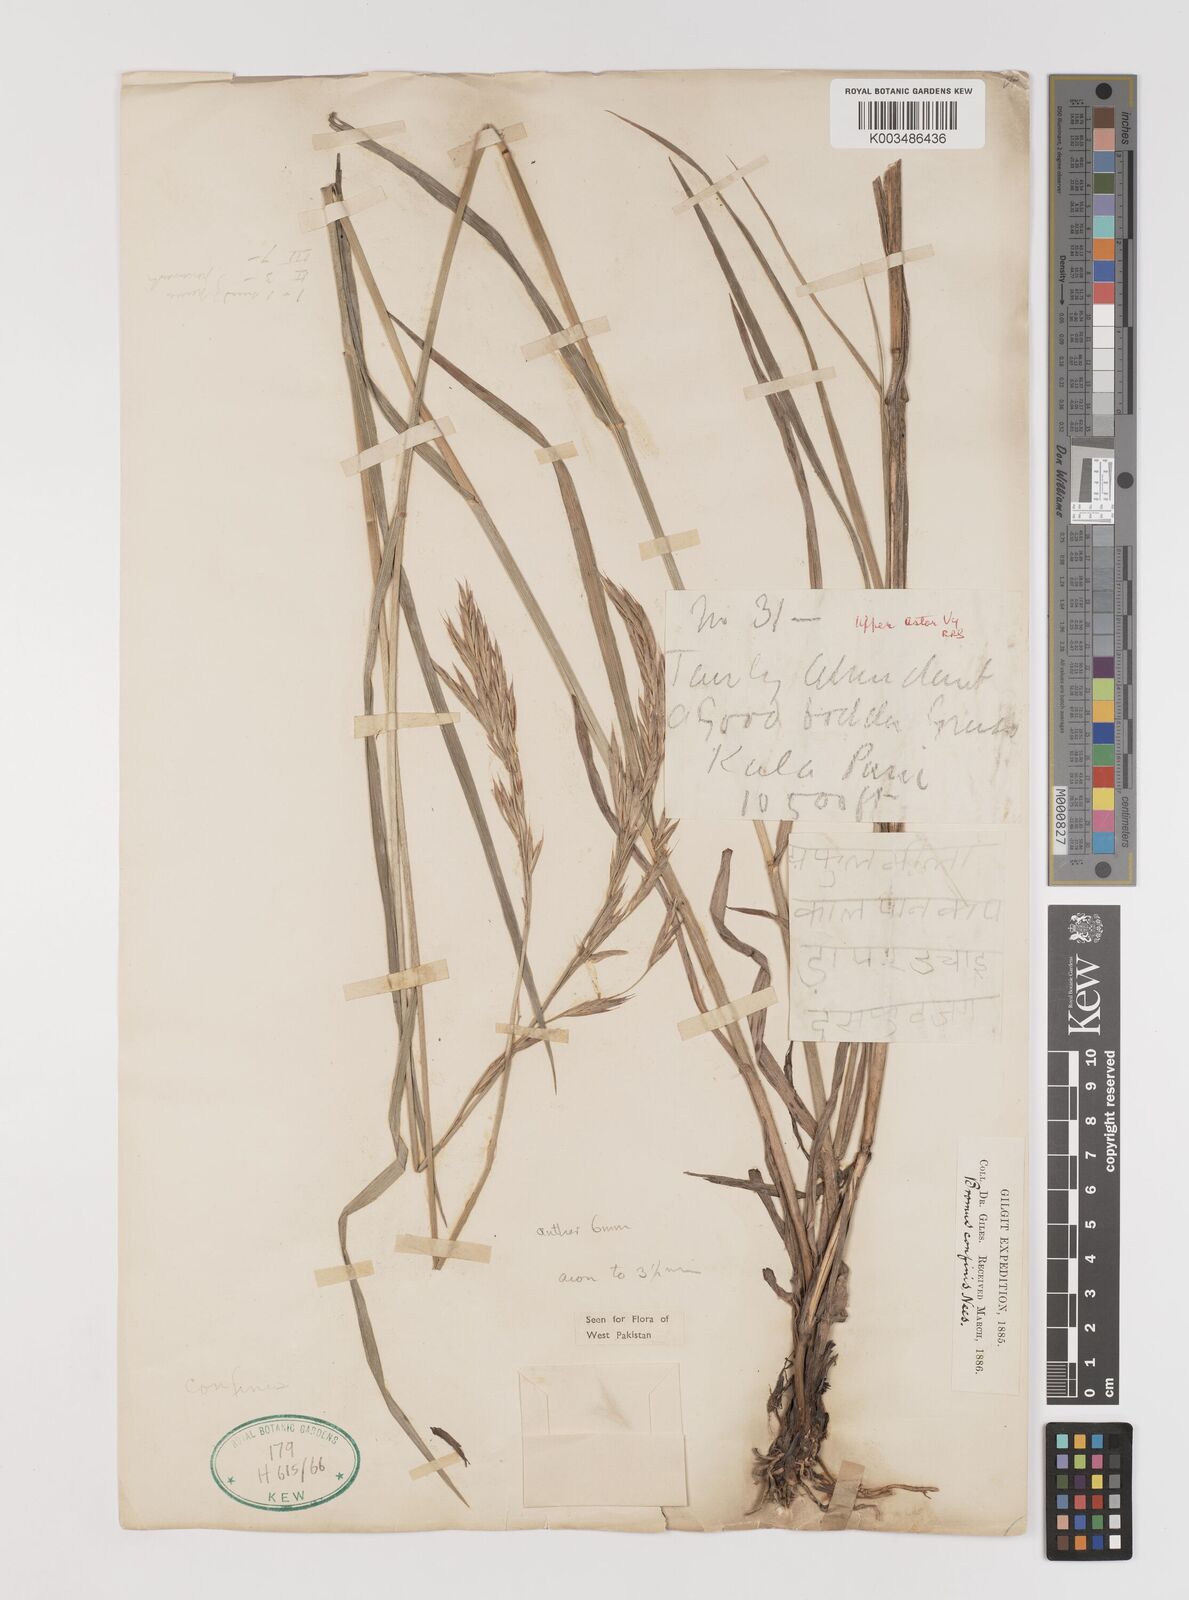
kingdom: Plantae
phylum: Tracheophyta
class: Liliopsida
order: Poales
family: Poaceae
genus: Bromus
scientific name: Bromus confinis
